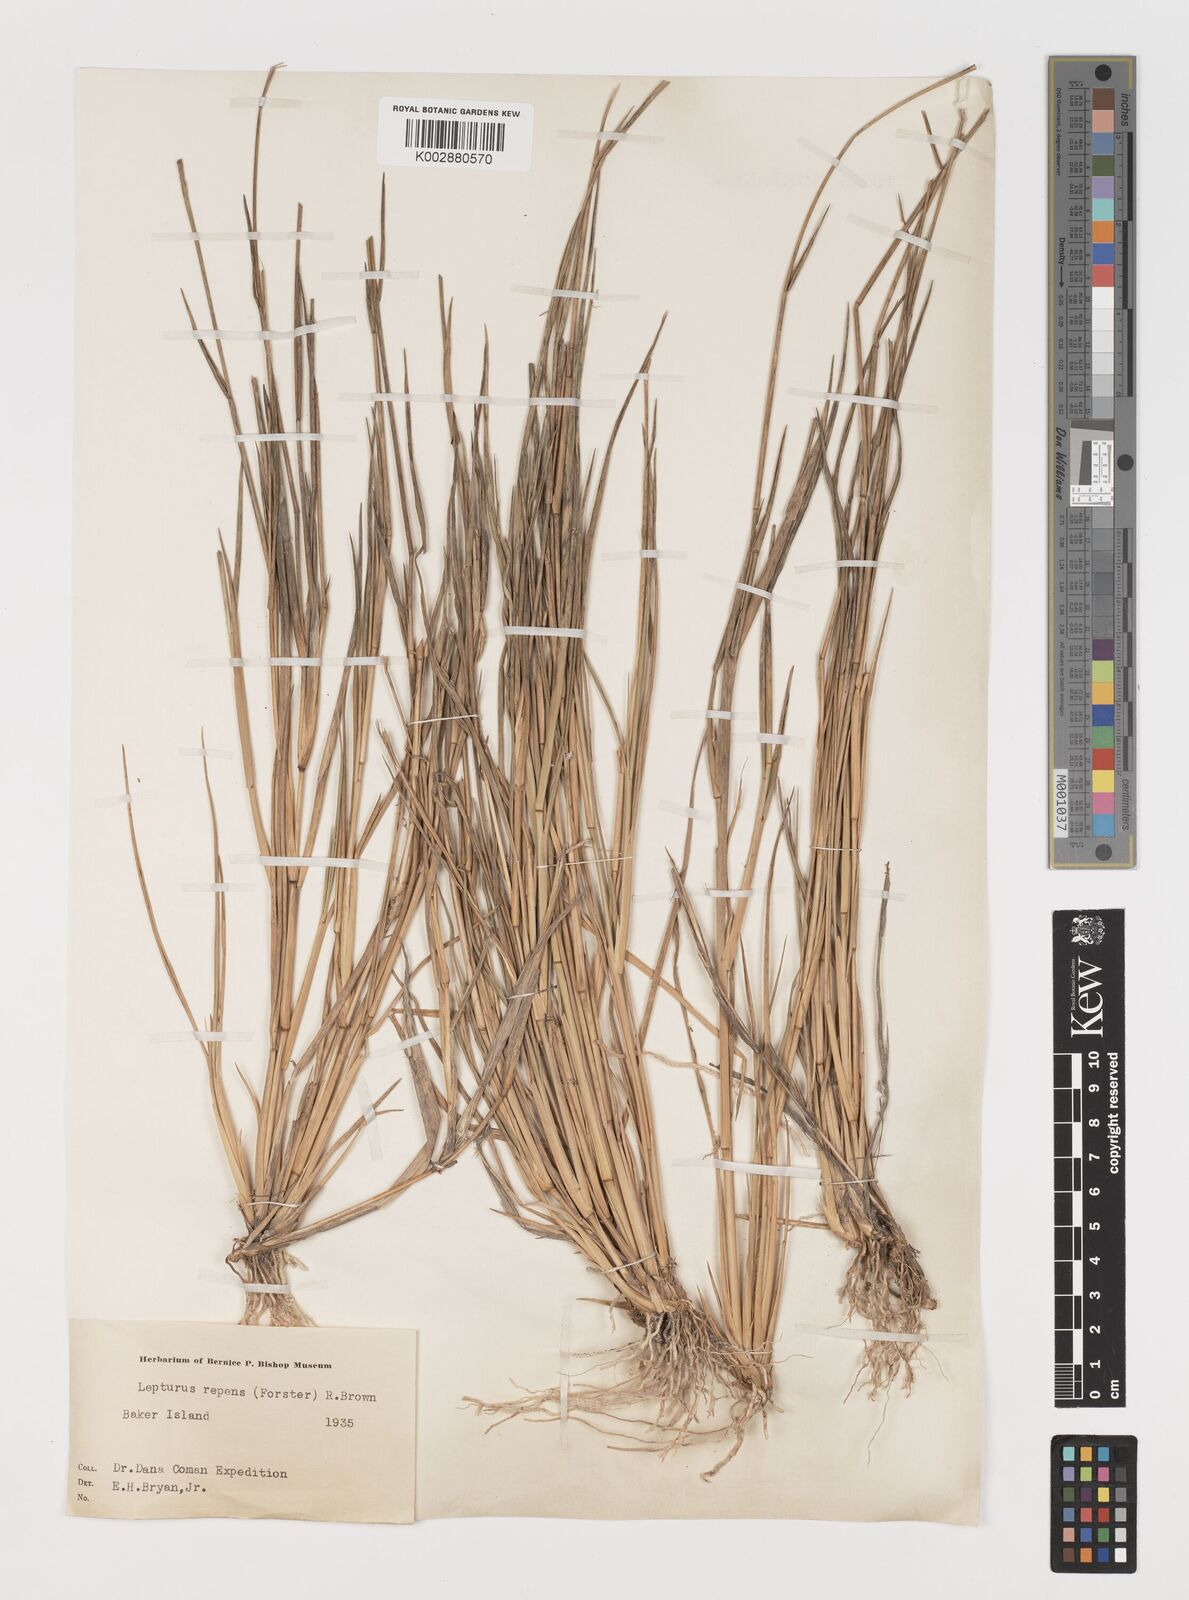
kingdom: Plantae
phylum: Tracheophyta
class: Liliopsida
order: Poales
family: Poaceae
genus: Lepturus
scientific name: Lepturus repens
